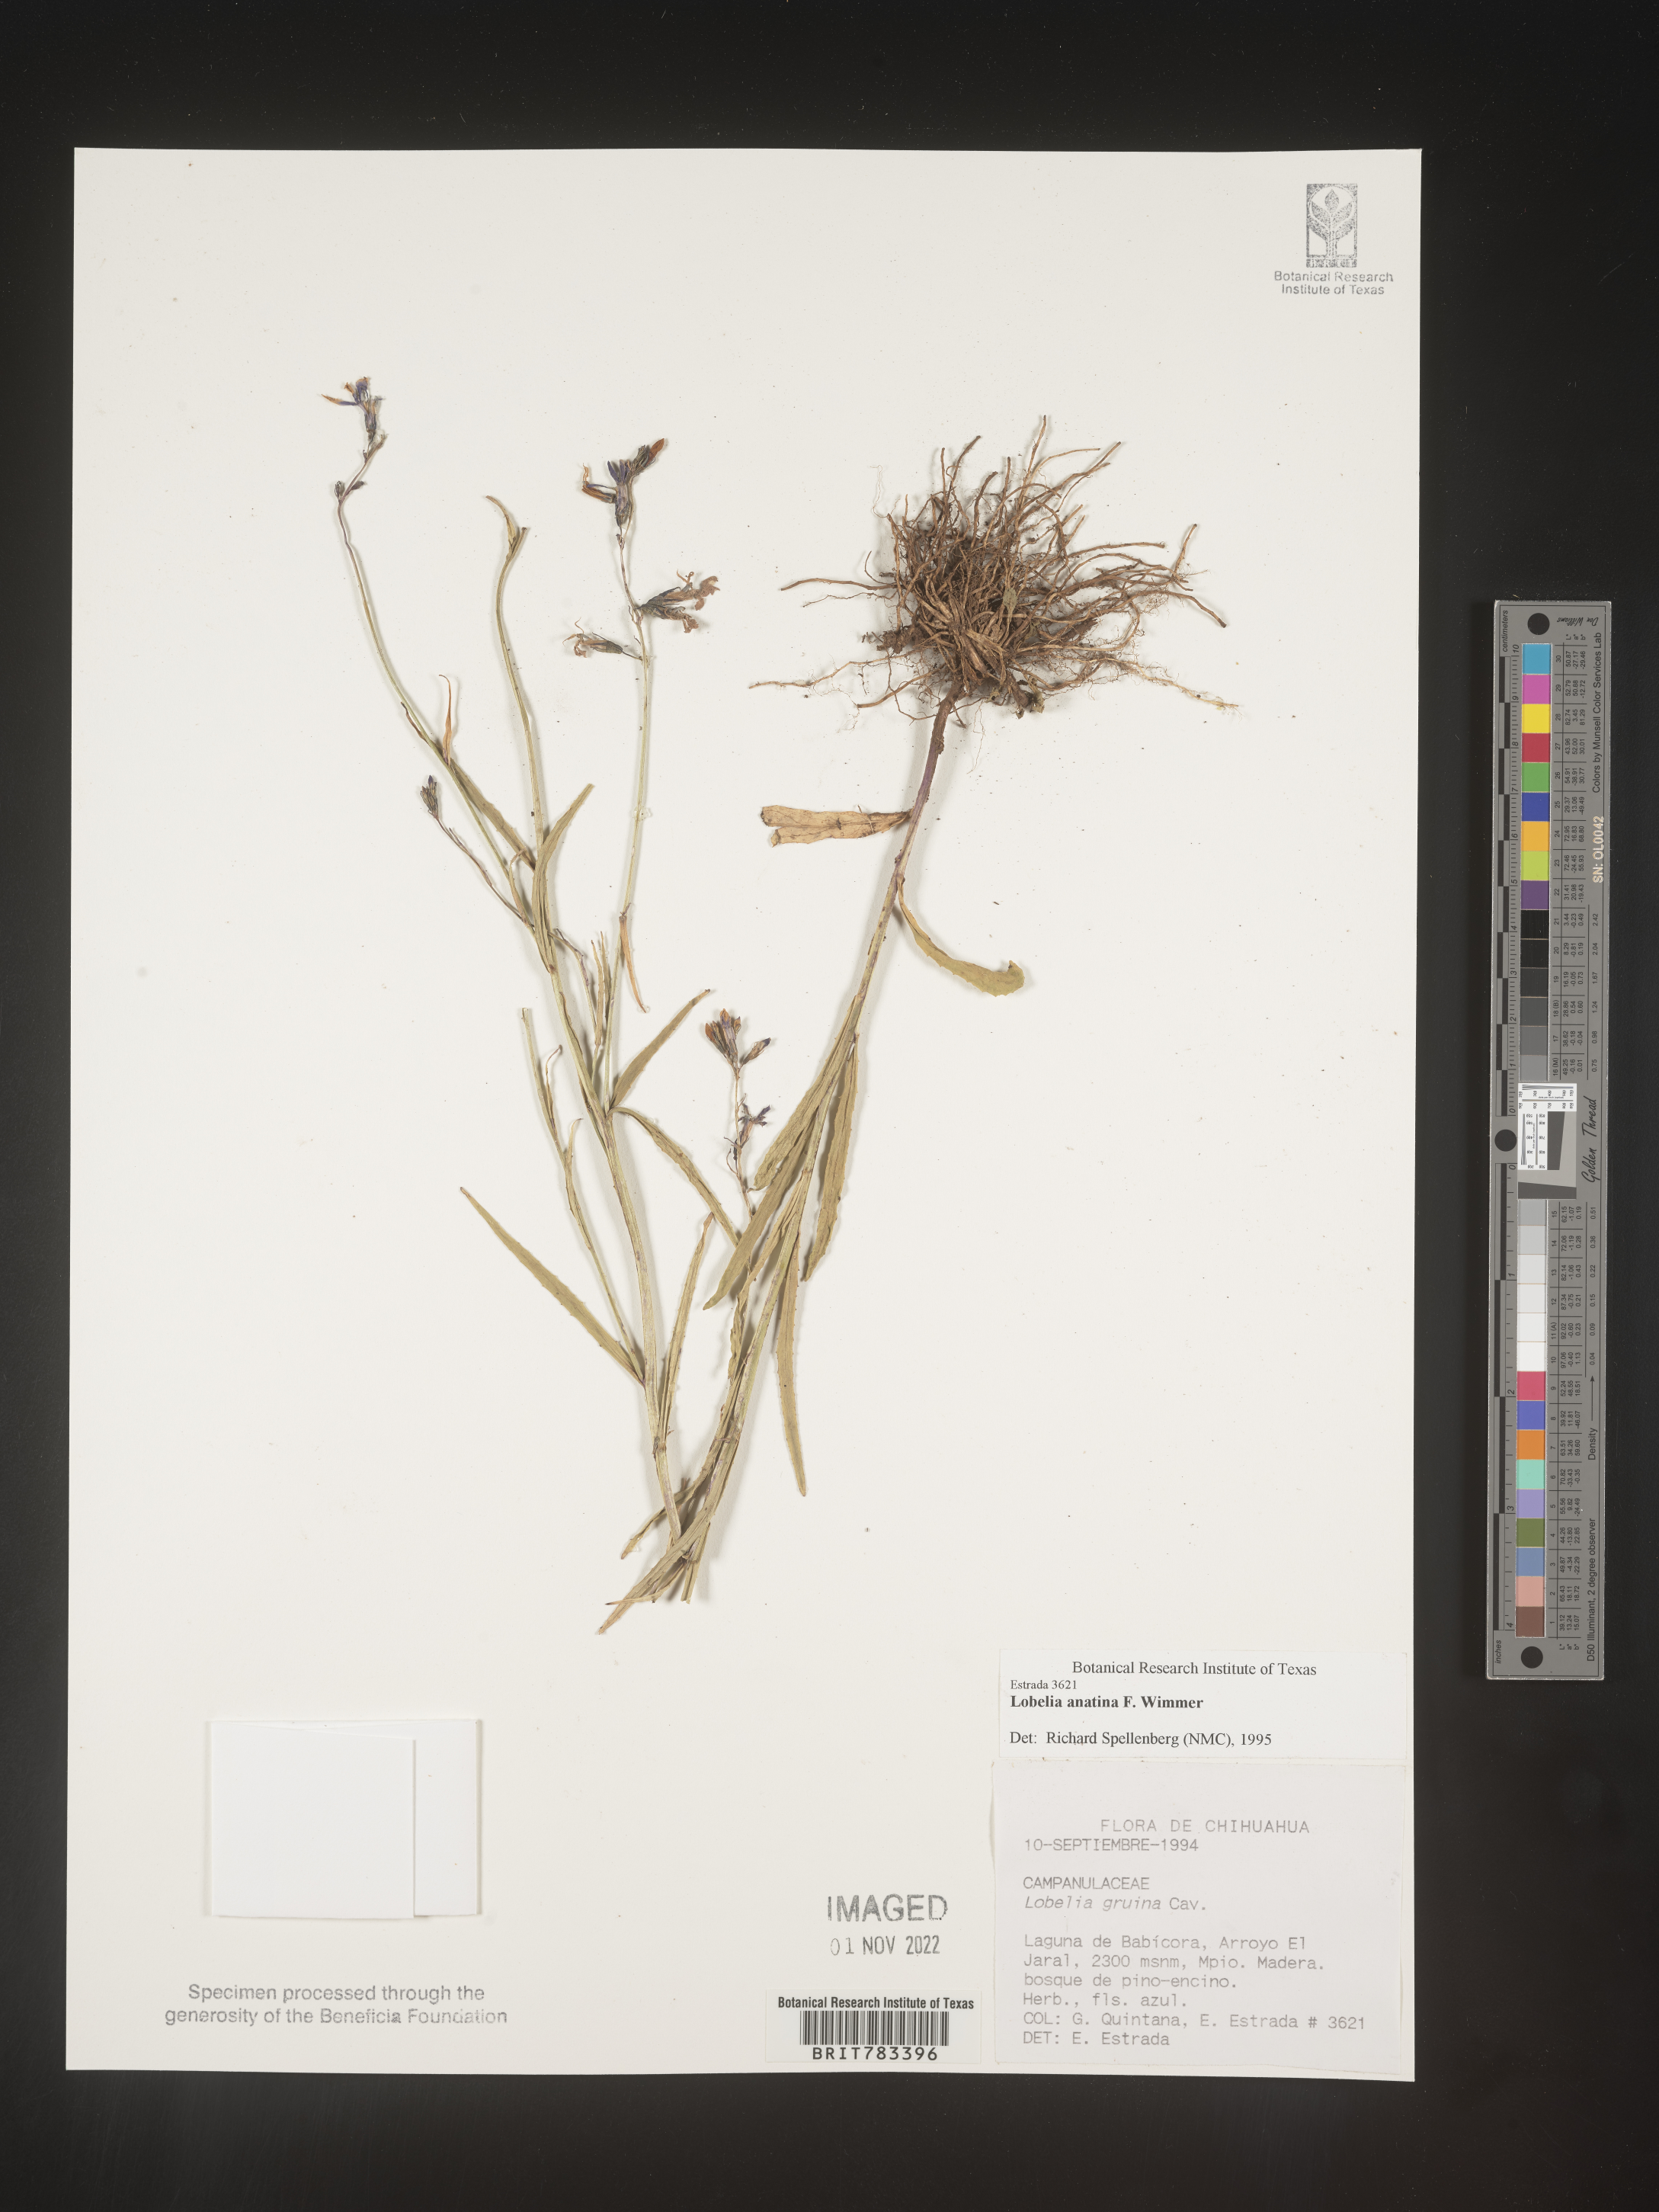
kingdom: Plantae
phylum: Tracheophyta
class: Magnoliopsida
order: Asterales
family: Campanulaceae
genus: Lobelia
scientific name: Lobelia
